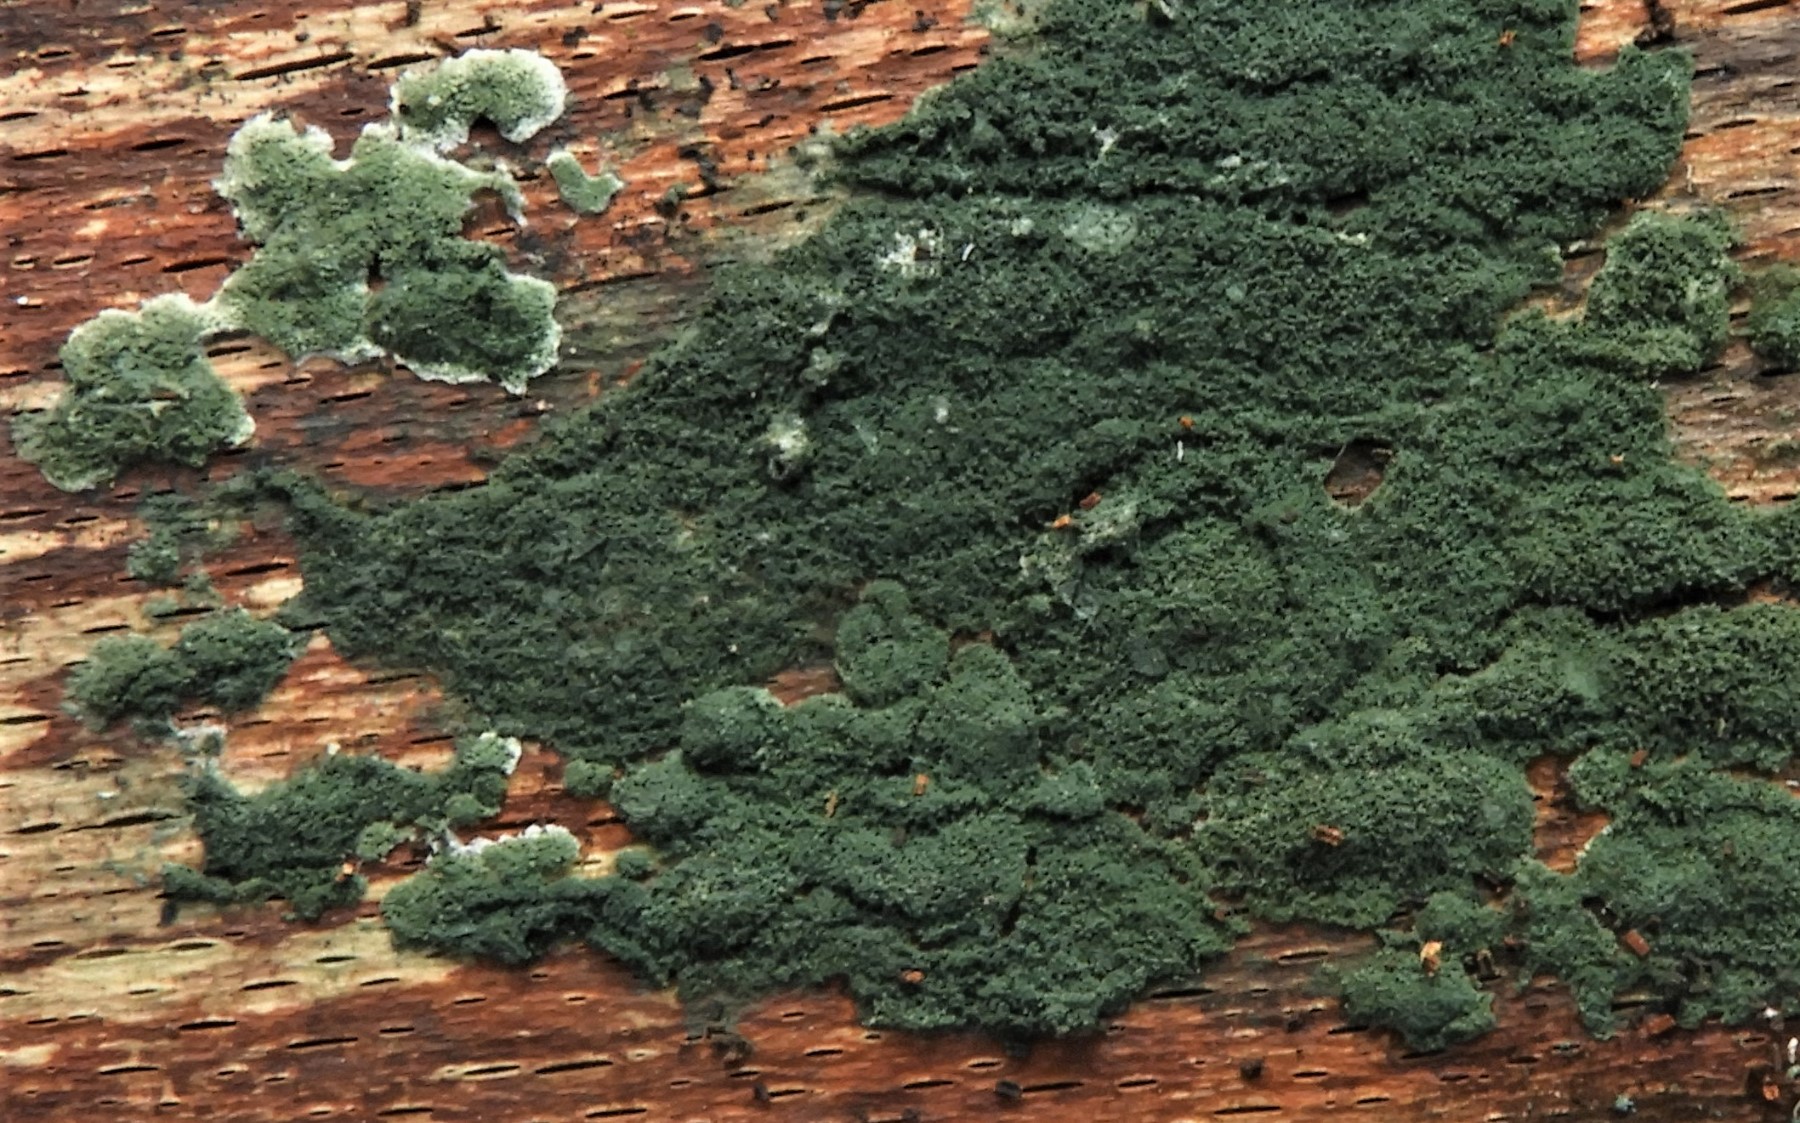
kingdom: Fungi
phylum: Ascomycota
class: Sordariomycetes
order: Hypocreales
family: Hypocreaceae
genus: Trichoderma
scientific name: Trichoderma
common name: kødkerne
